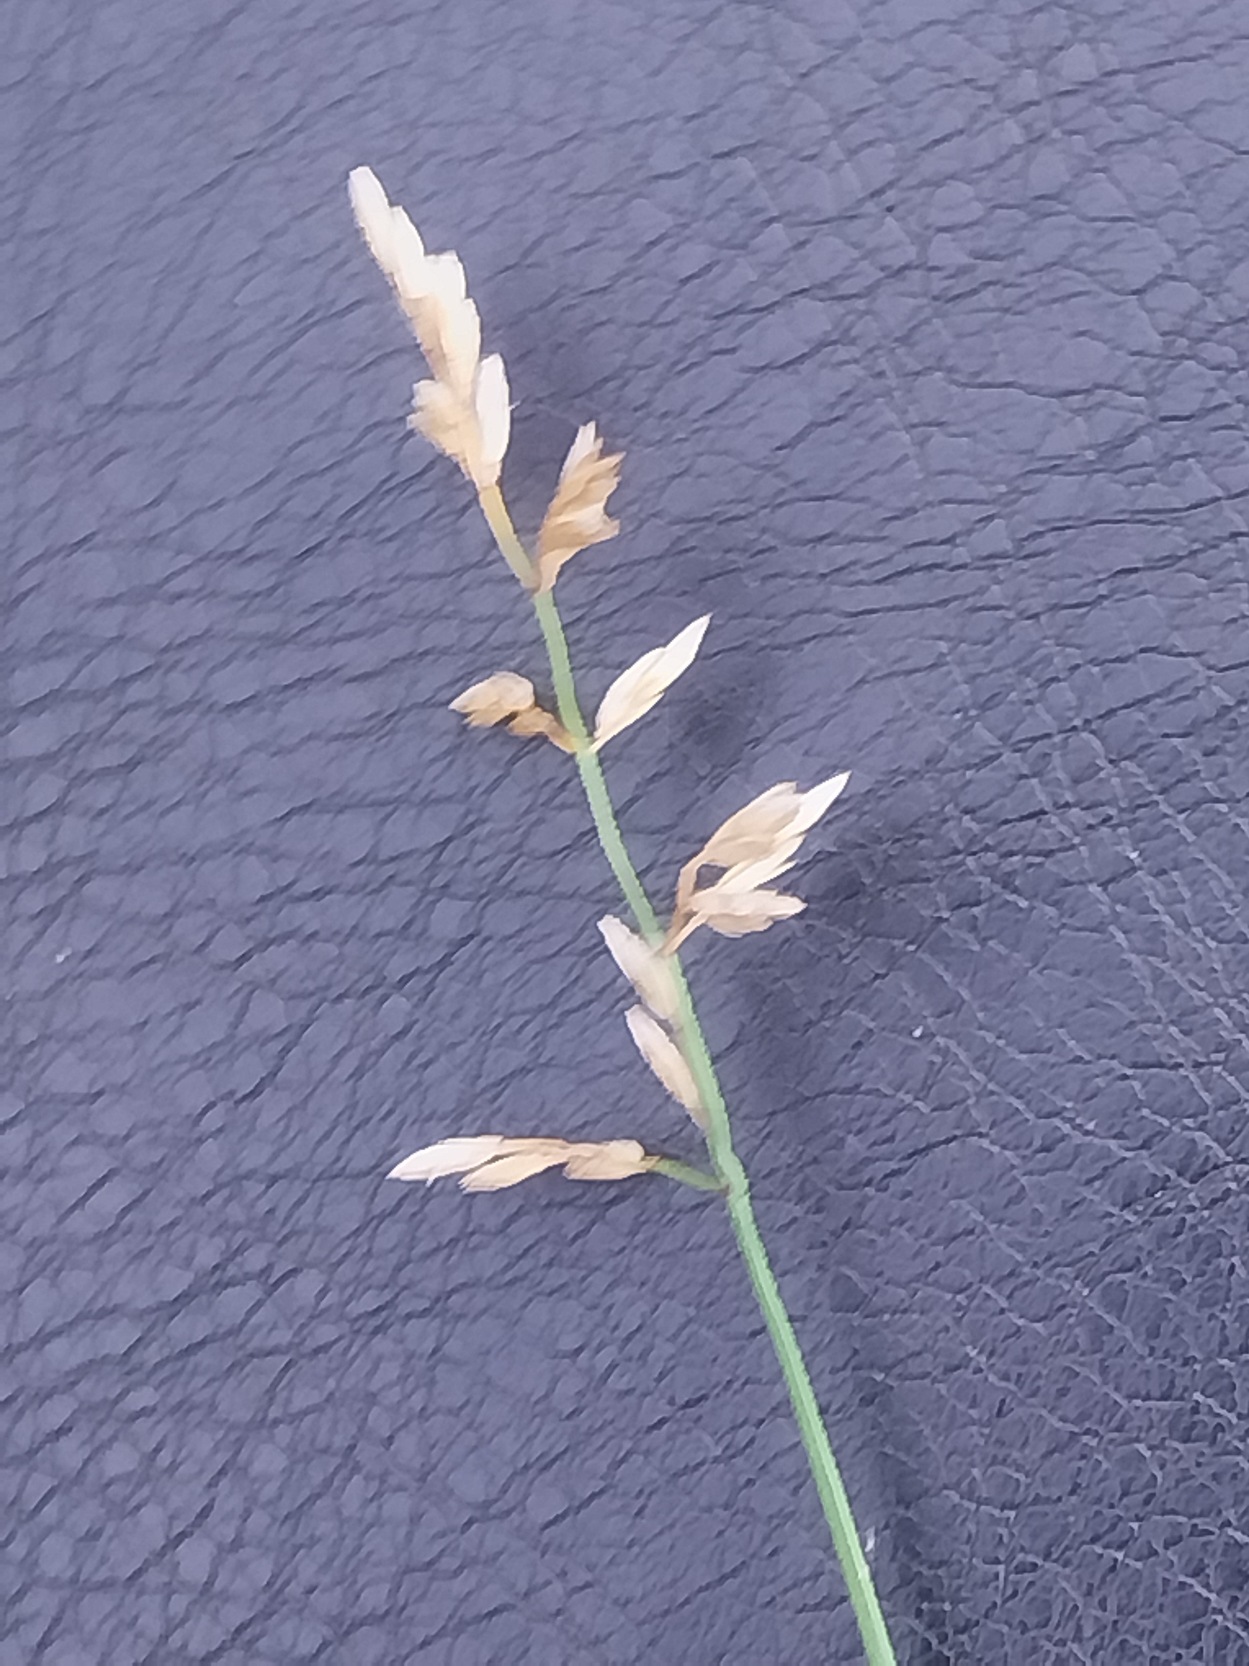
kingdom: Plantae
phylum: Tracheophyta
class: Liliopsida
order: Poales
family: Poaceae
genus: Poa
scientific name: Poa compressa
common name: Fladstrået rapgræs
